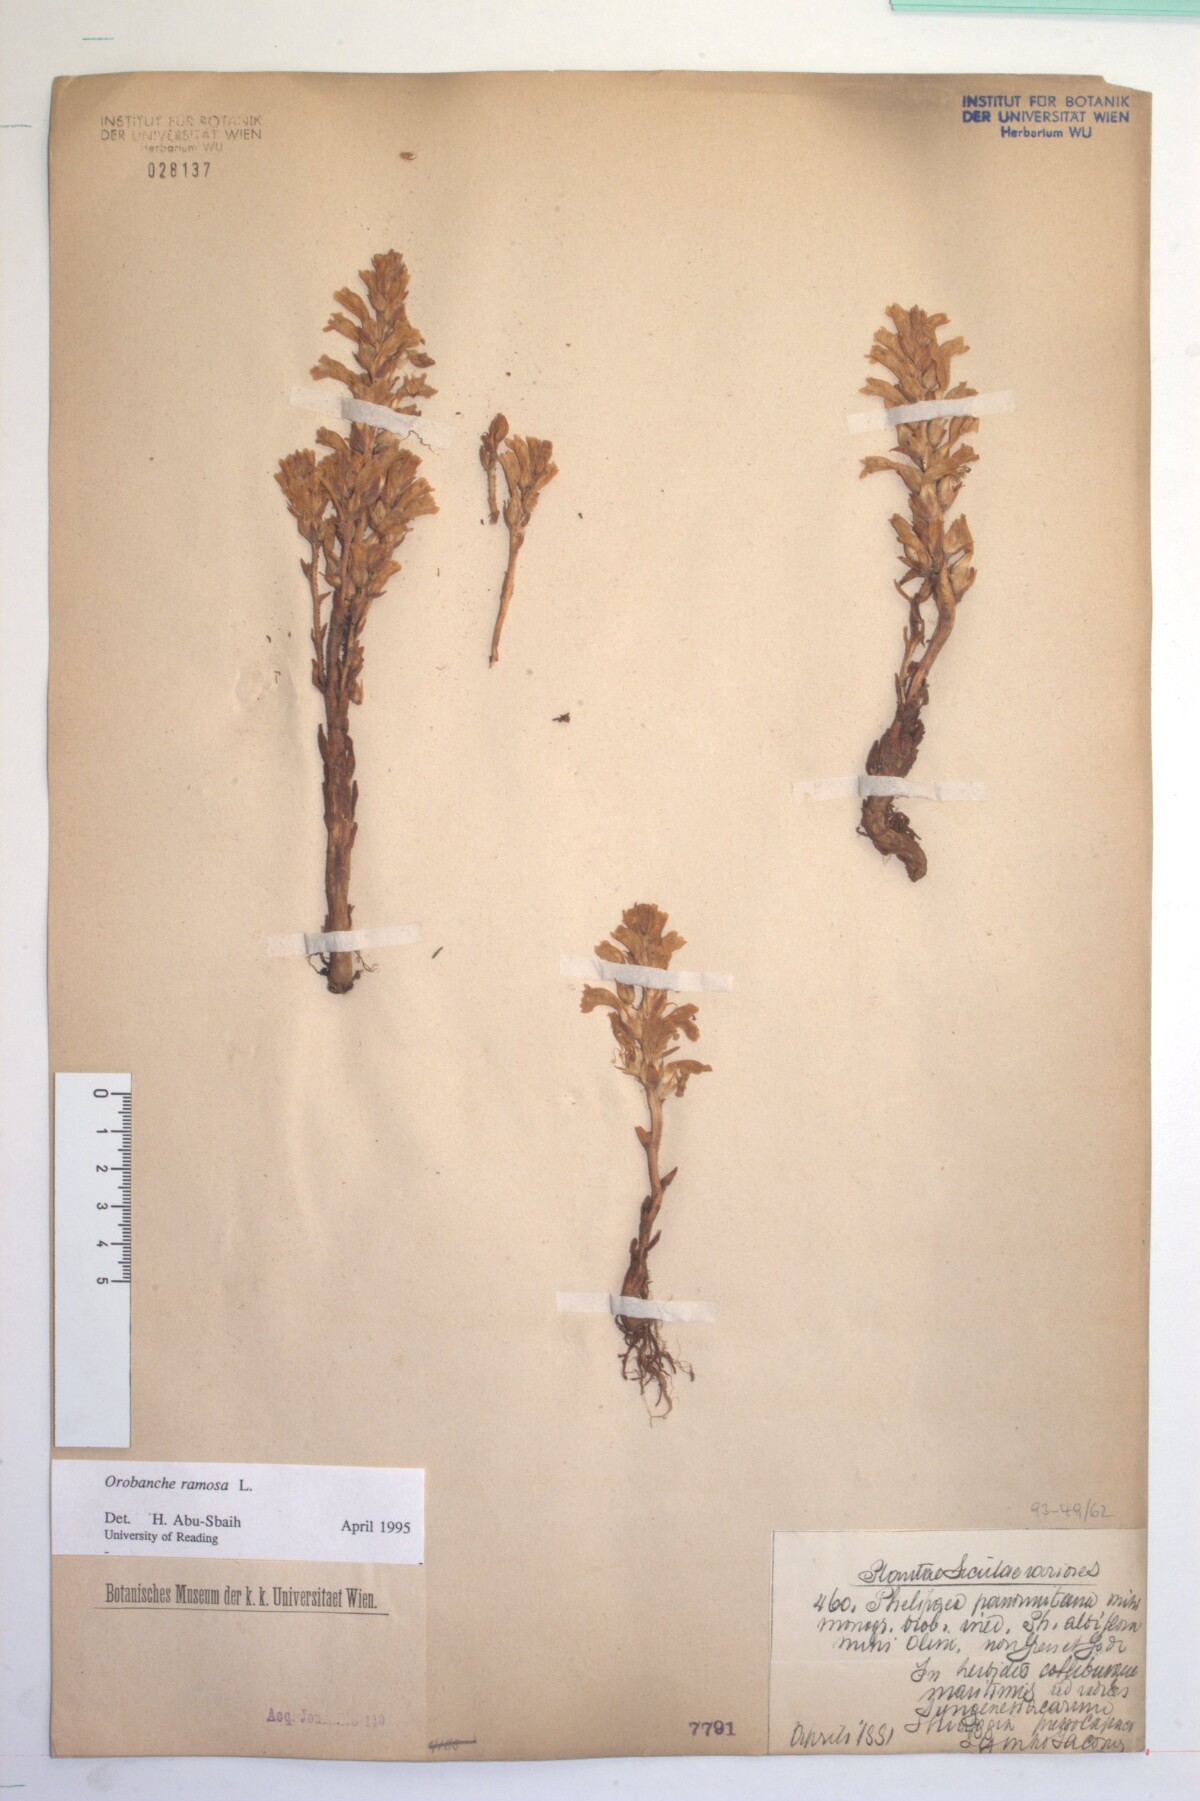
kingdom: Plantae
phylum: Tracheophyta
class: Magnoliopsida
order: Lamiales
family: Orobanchaceae
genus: Phelipanche
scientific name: Phelipanche ramosa
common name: Branched broomrape
